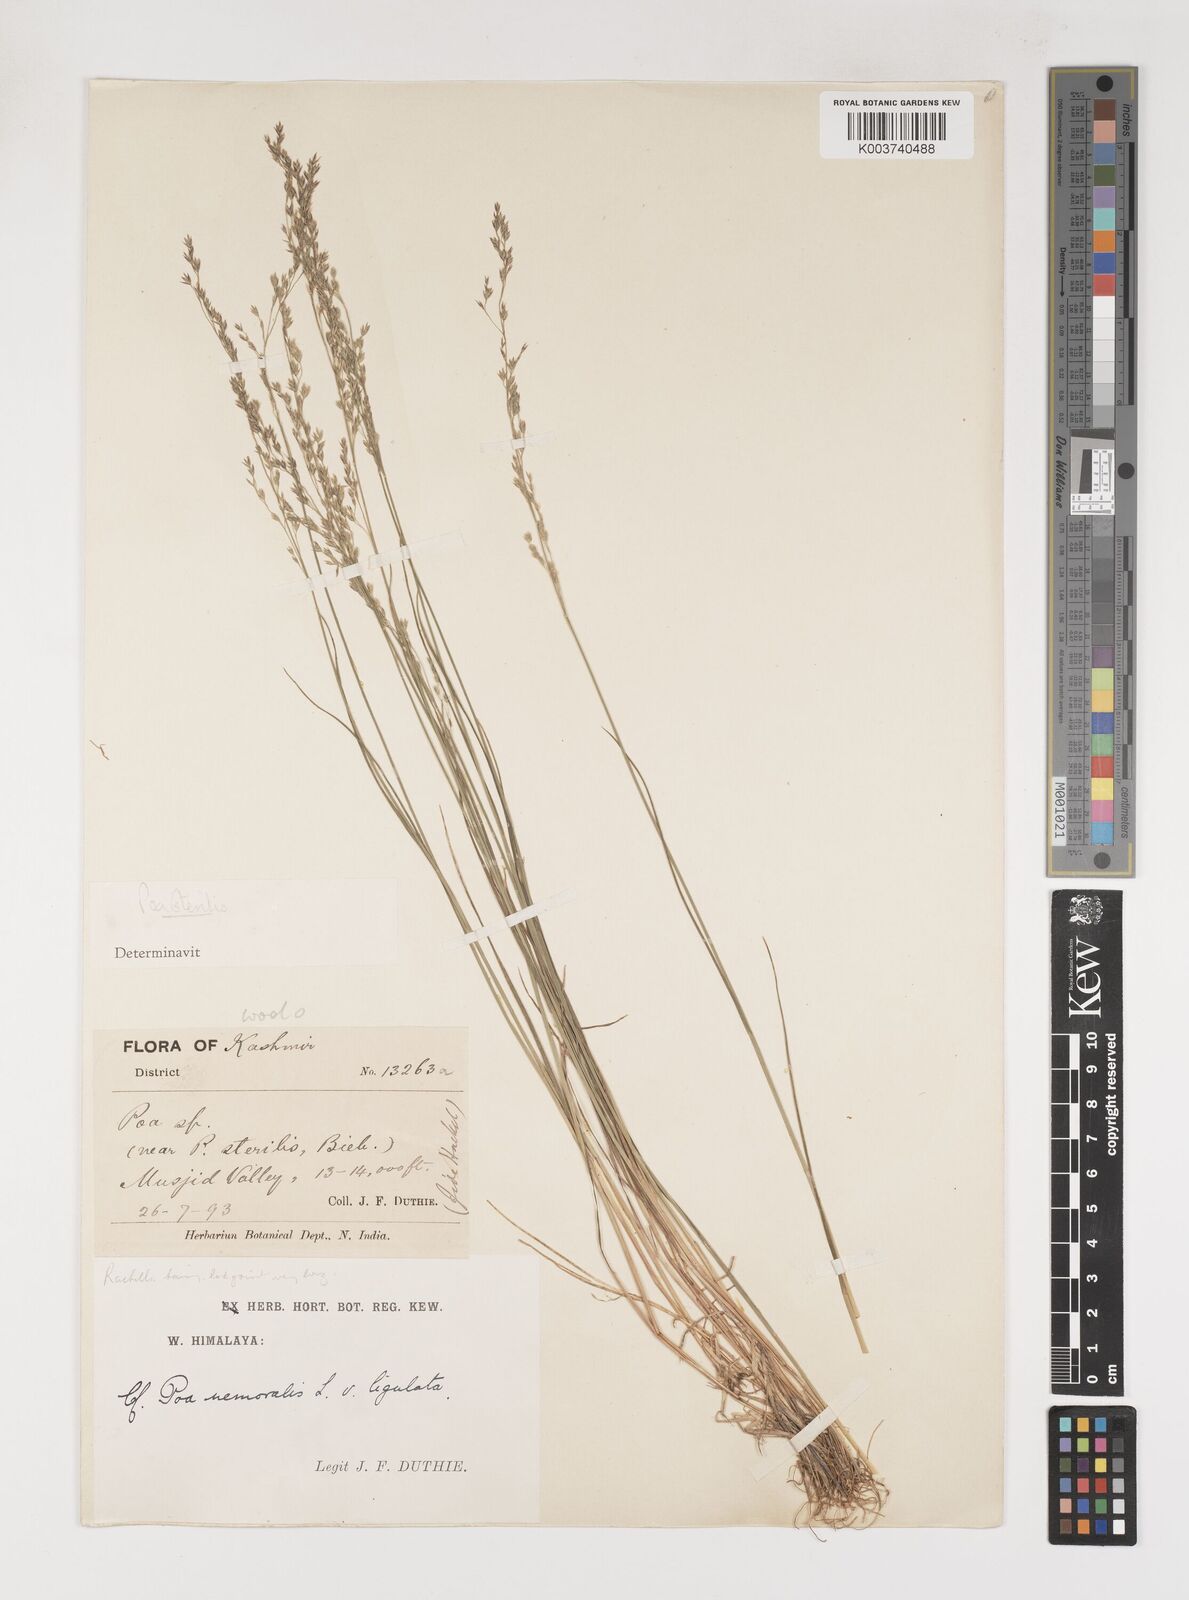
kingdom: Plantae
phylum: Tracheophyta
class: Liliopsida
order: Poales
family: Poaceae
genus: Poa
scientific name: Poa sterilis
